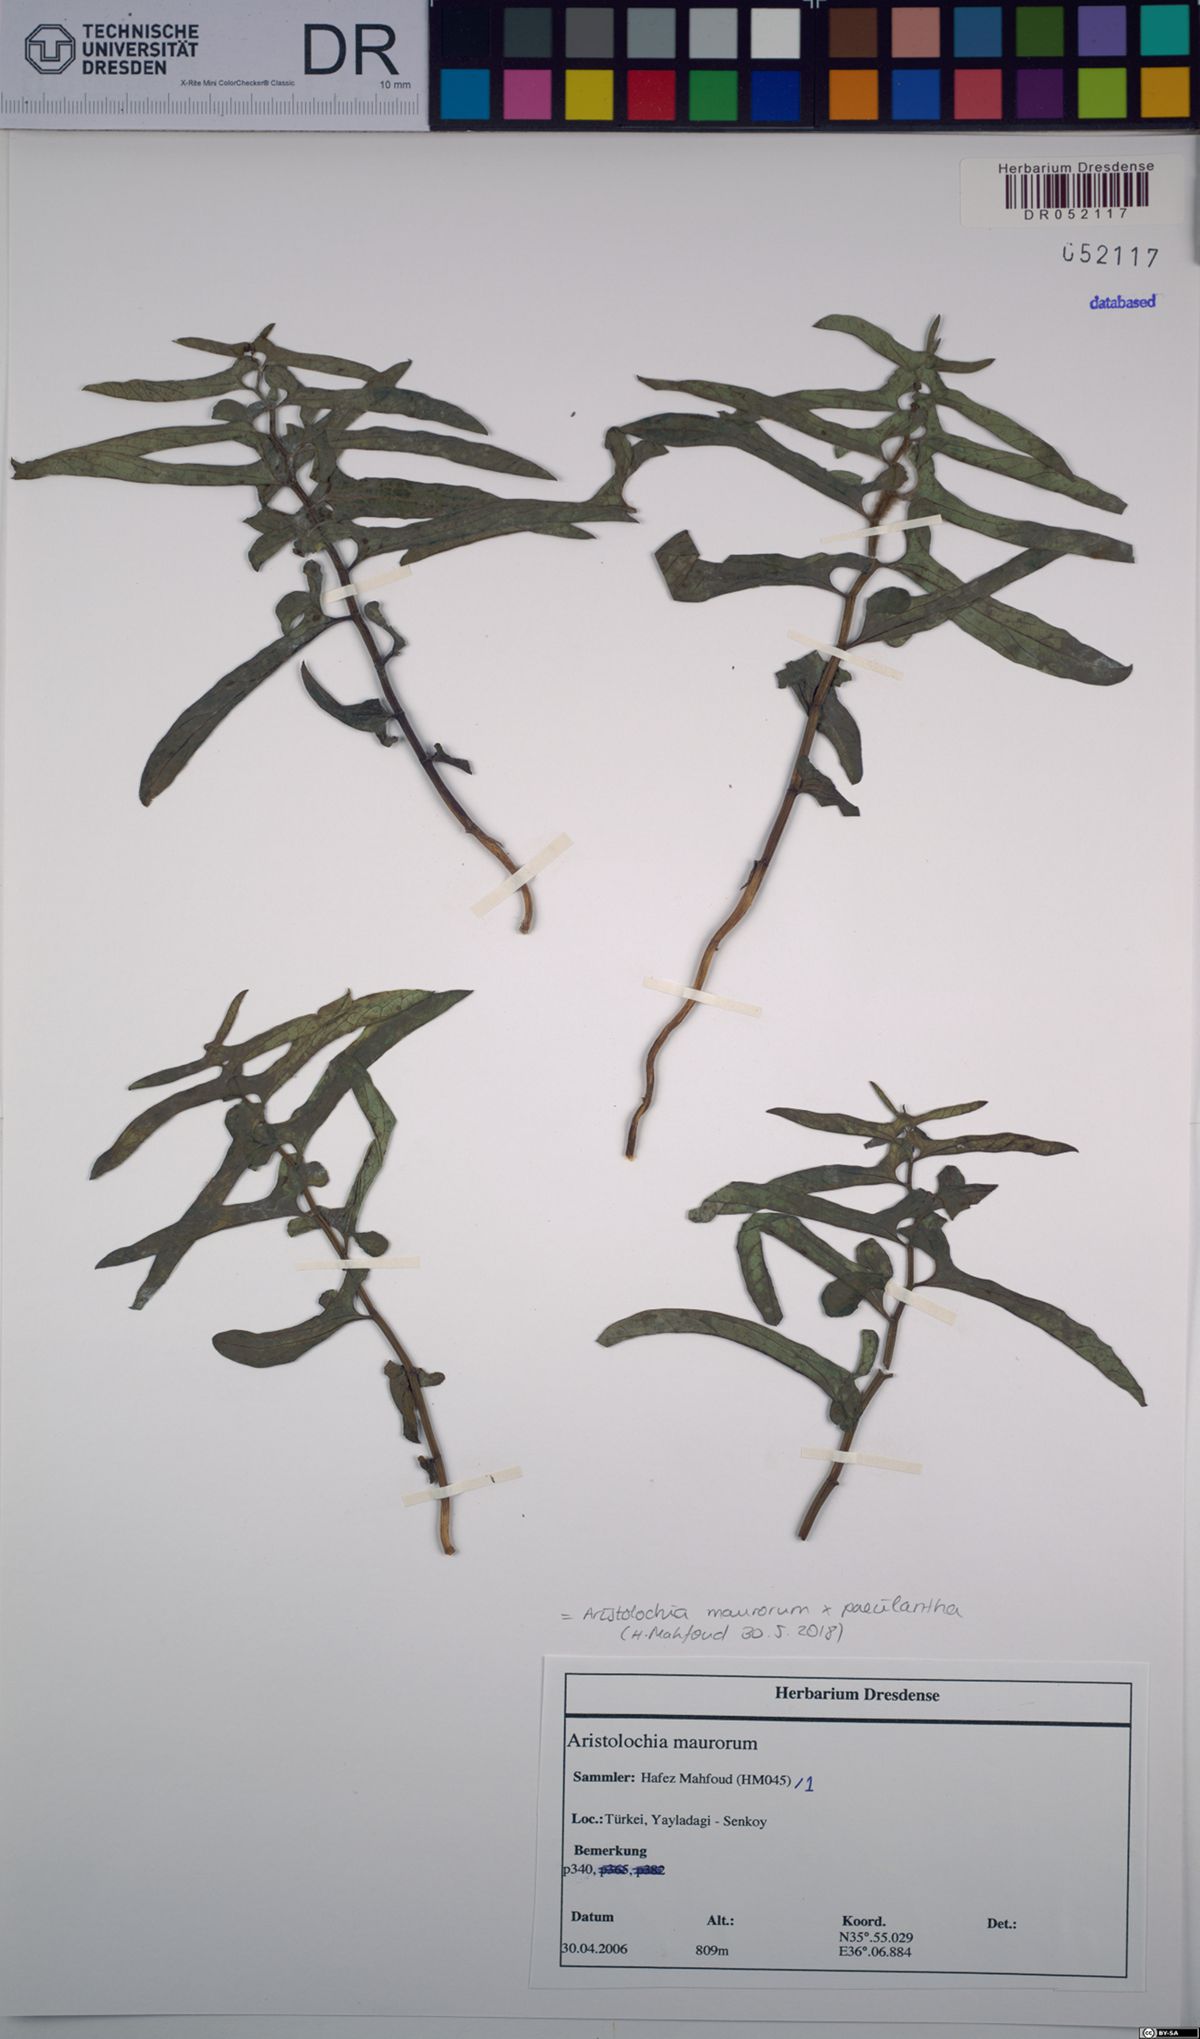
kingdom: Plantae
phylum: Tracheophyta
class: Magnoliopsida
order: Piperales
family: Aristolochiaceae
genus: Aristolochia
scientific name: Aristolochia maurorum
